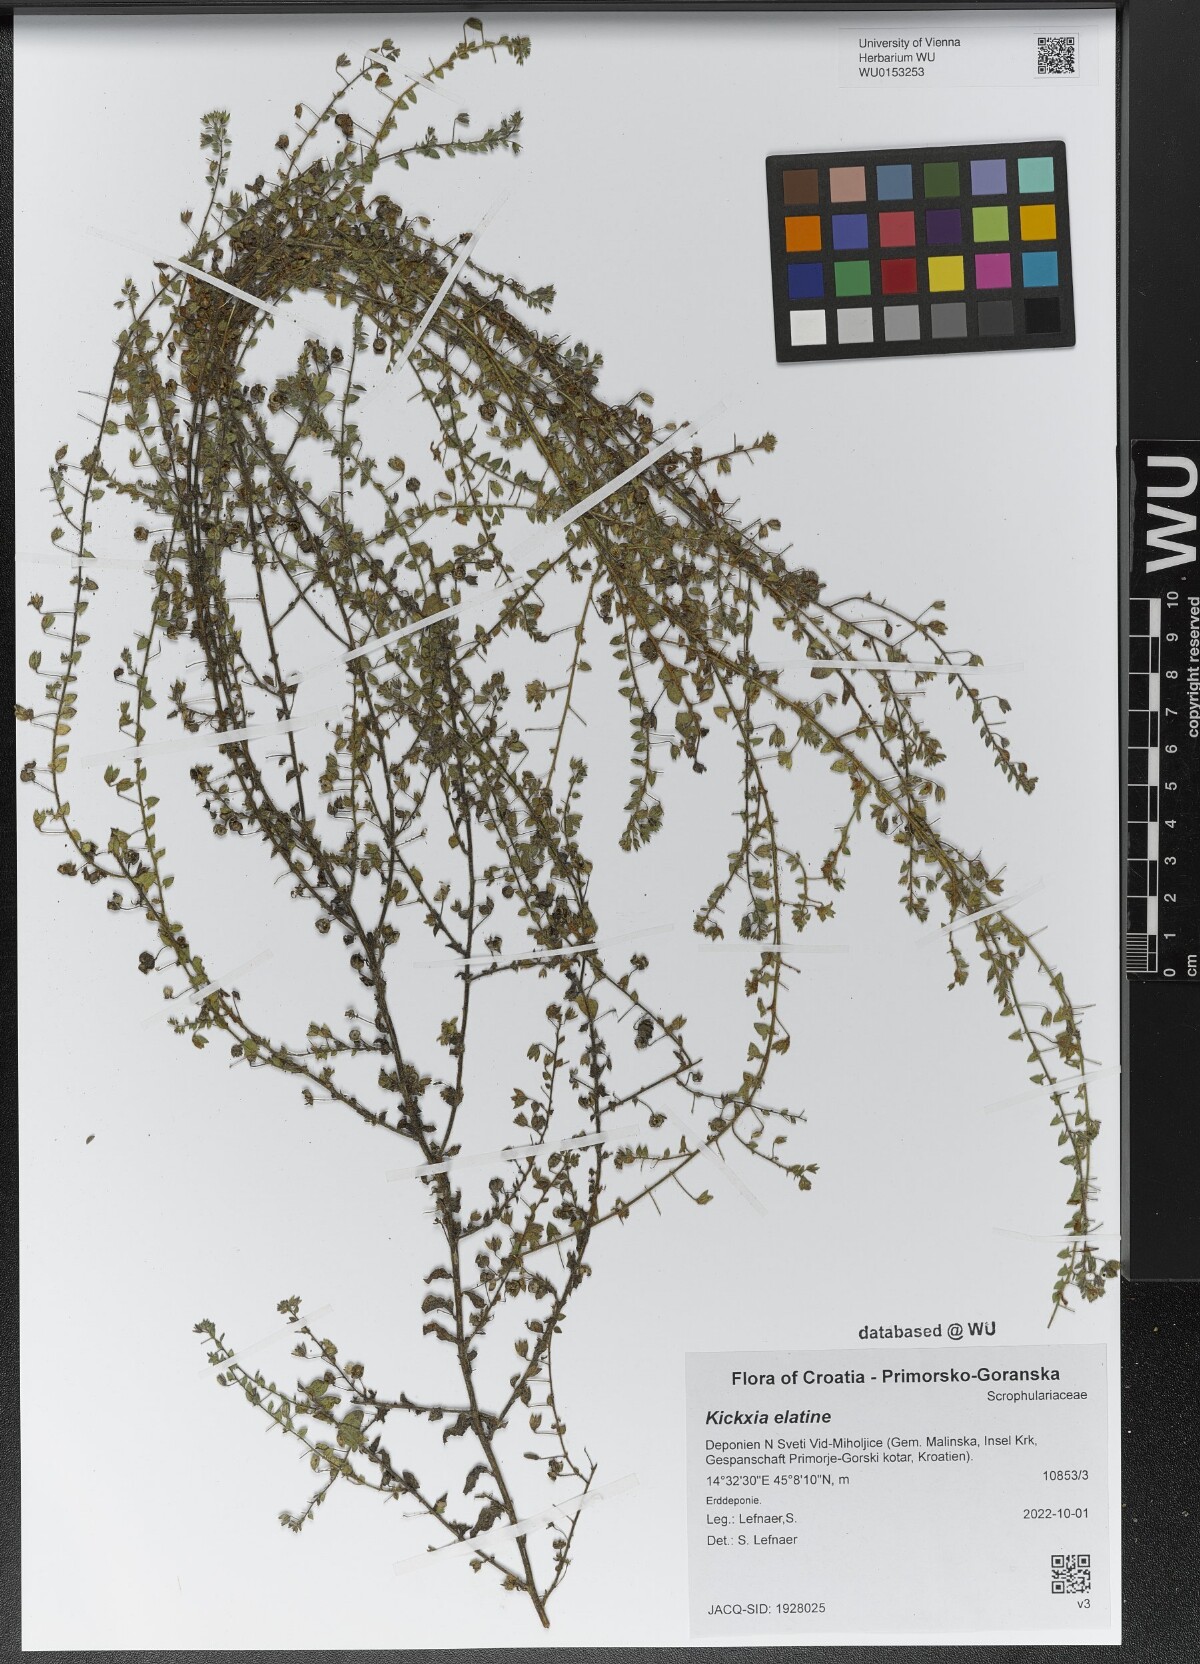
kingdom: Plantae
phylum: Tracheophyta
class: Magnoliopsida
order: Lamiales
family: Plantaginaceae
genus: Kickxia
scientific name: Kickxia elatine
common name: Sharp-leaved fluellen
